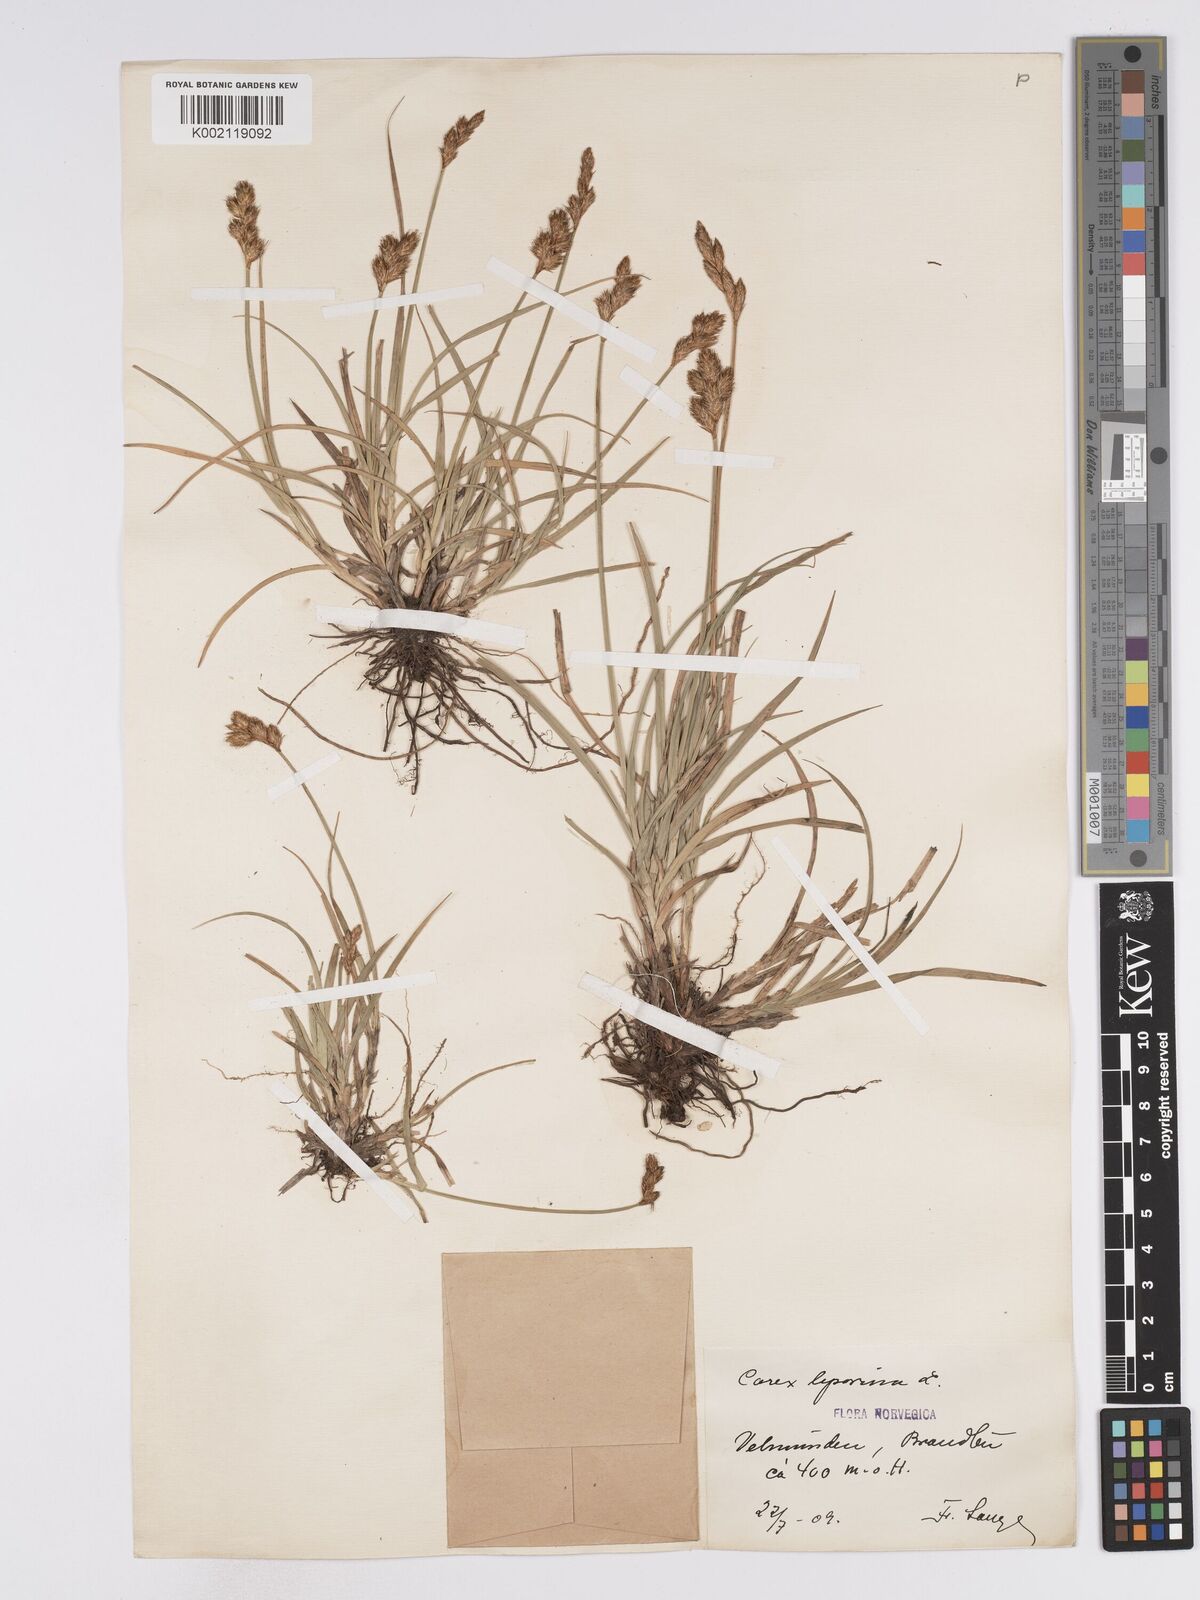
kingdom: Plantae
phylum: Tracheophyta
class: Liliopsida
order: Poales
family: Cyperaceae
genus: Carex
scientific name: Carex leporina
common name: Oval sedge
